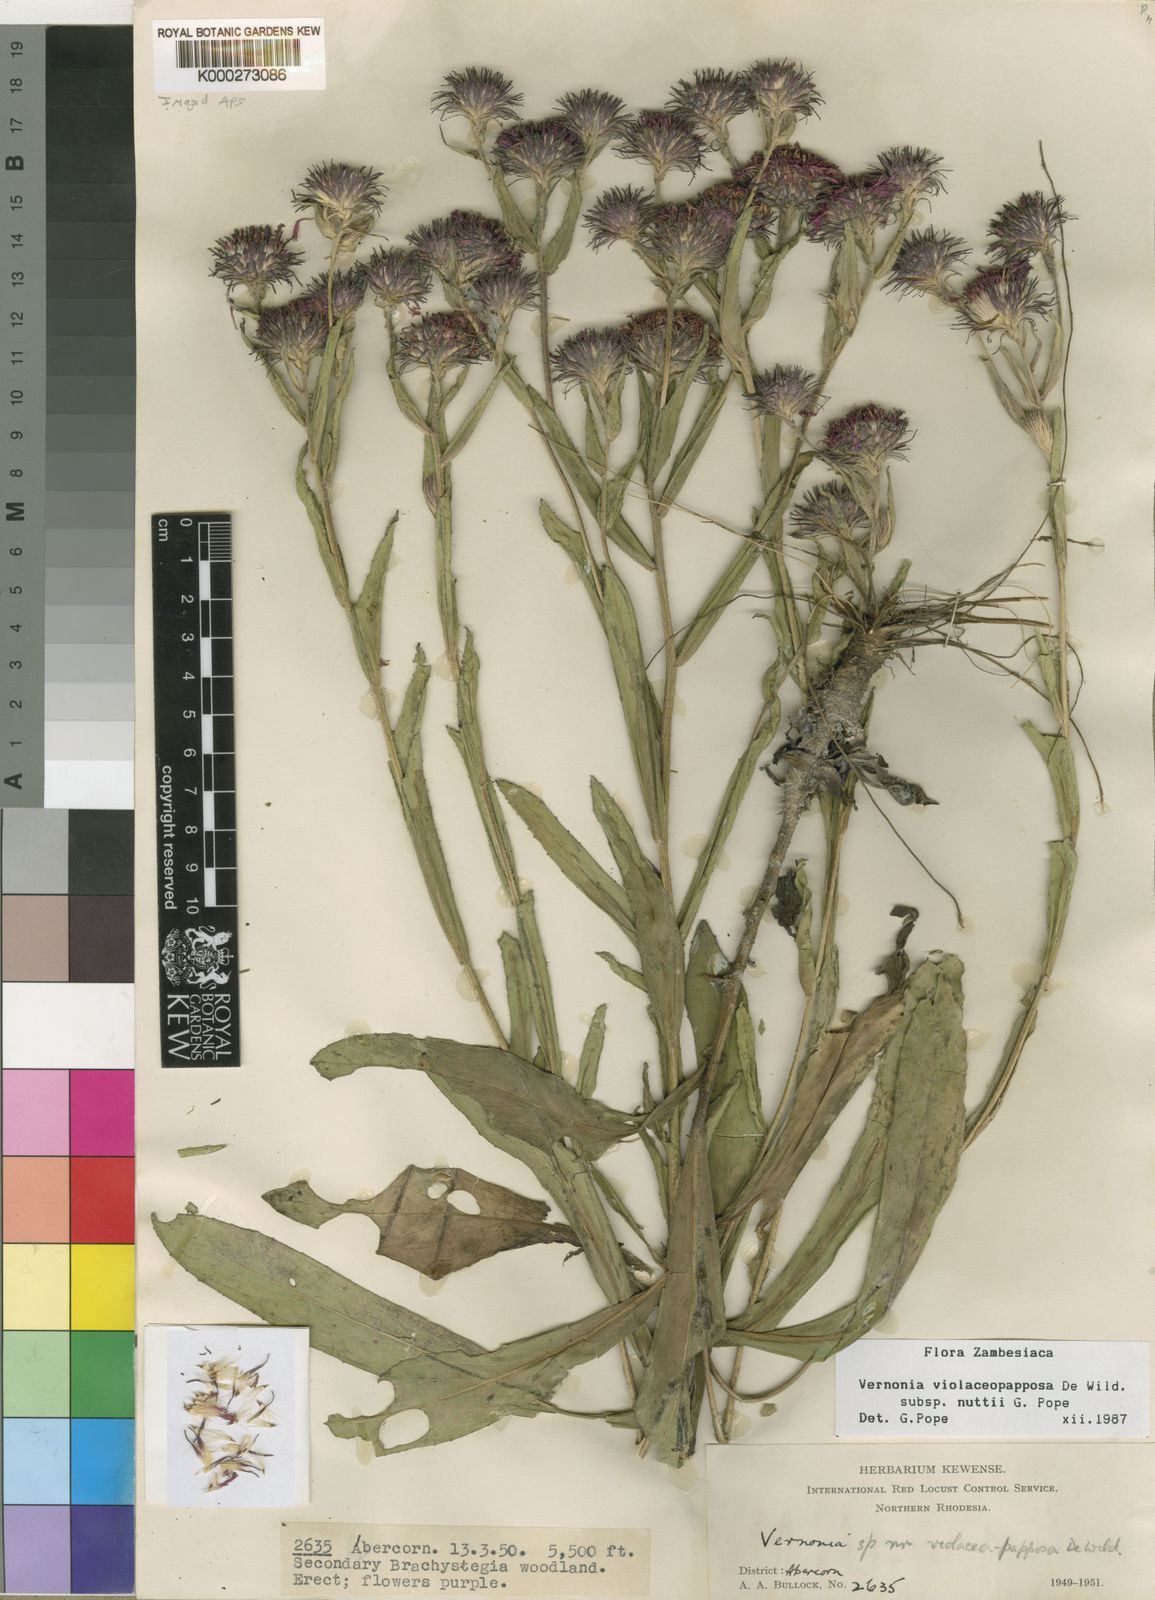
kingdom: Plantae
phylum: Tracheophyta
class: Magnoliopsida
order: Asterales
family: Asteraceae
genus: Vernonia
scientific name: Vernonia violaceopapposa
